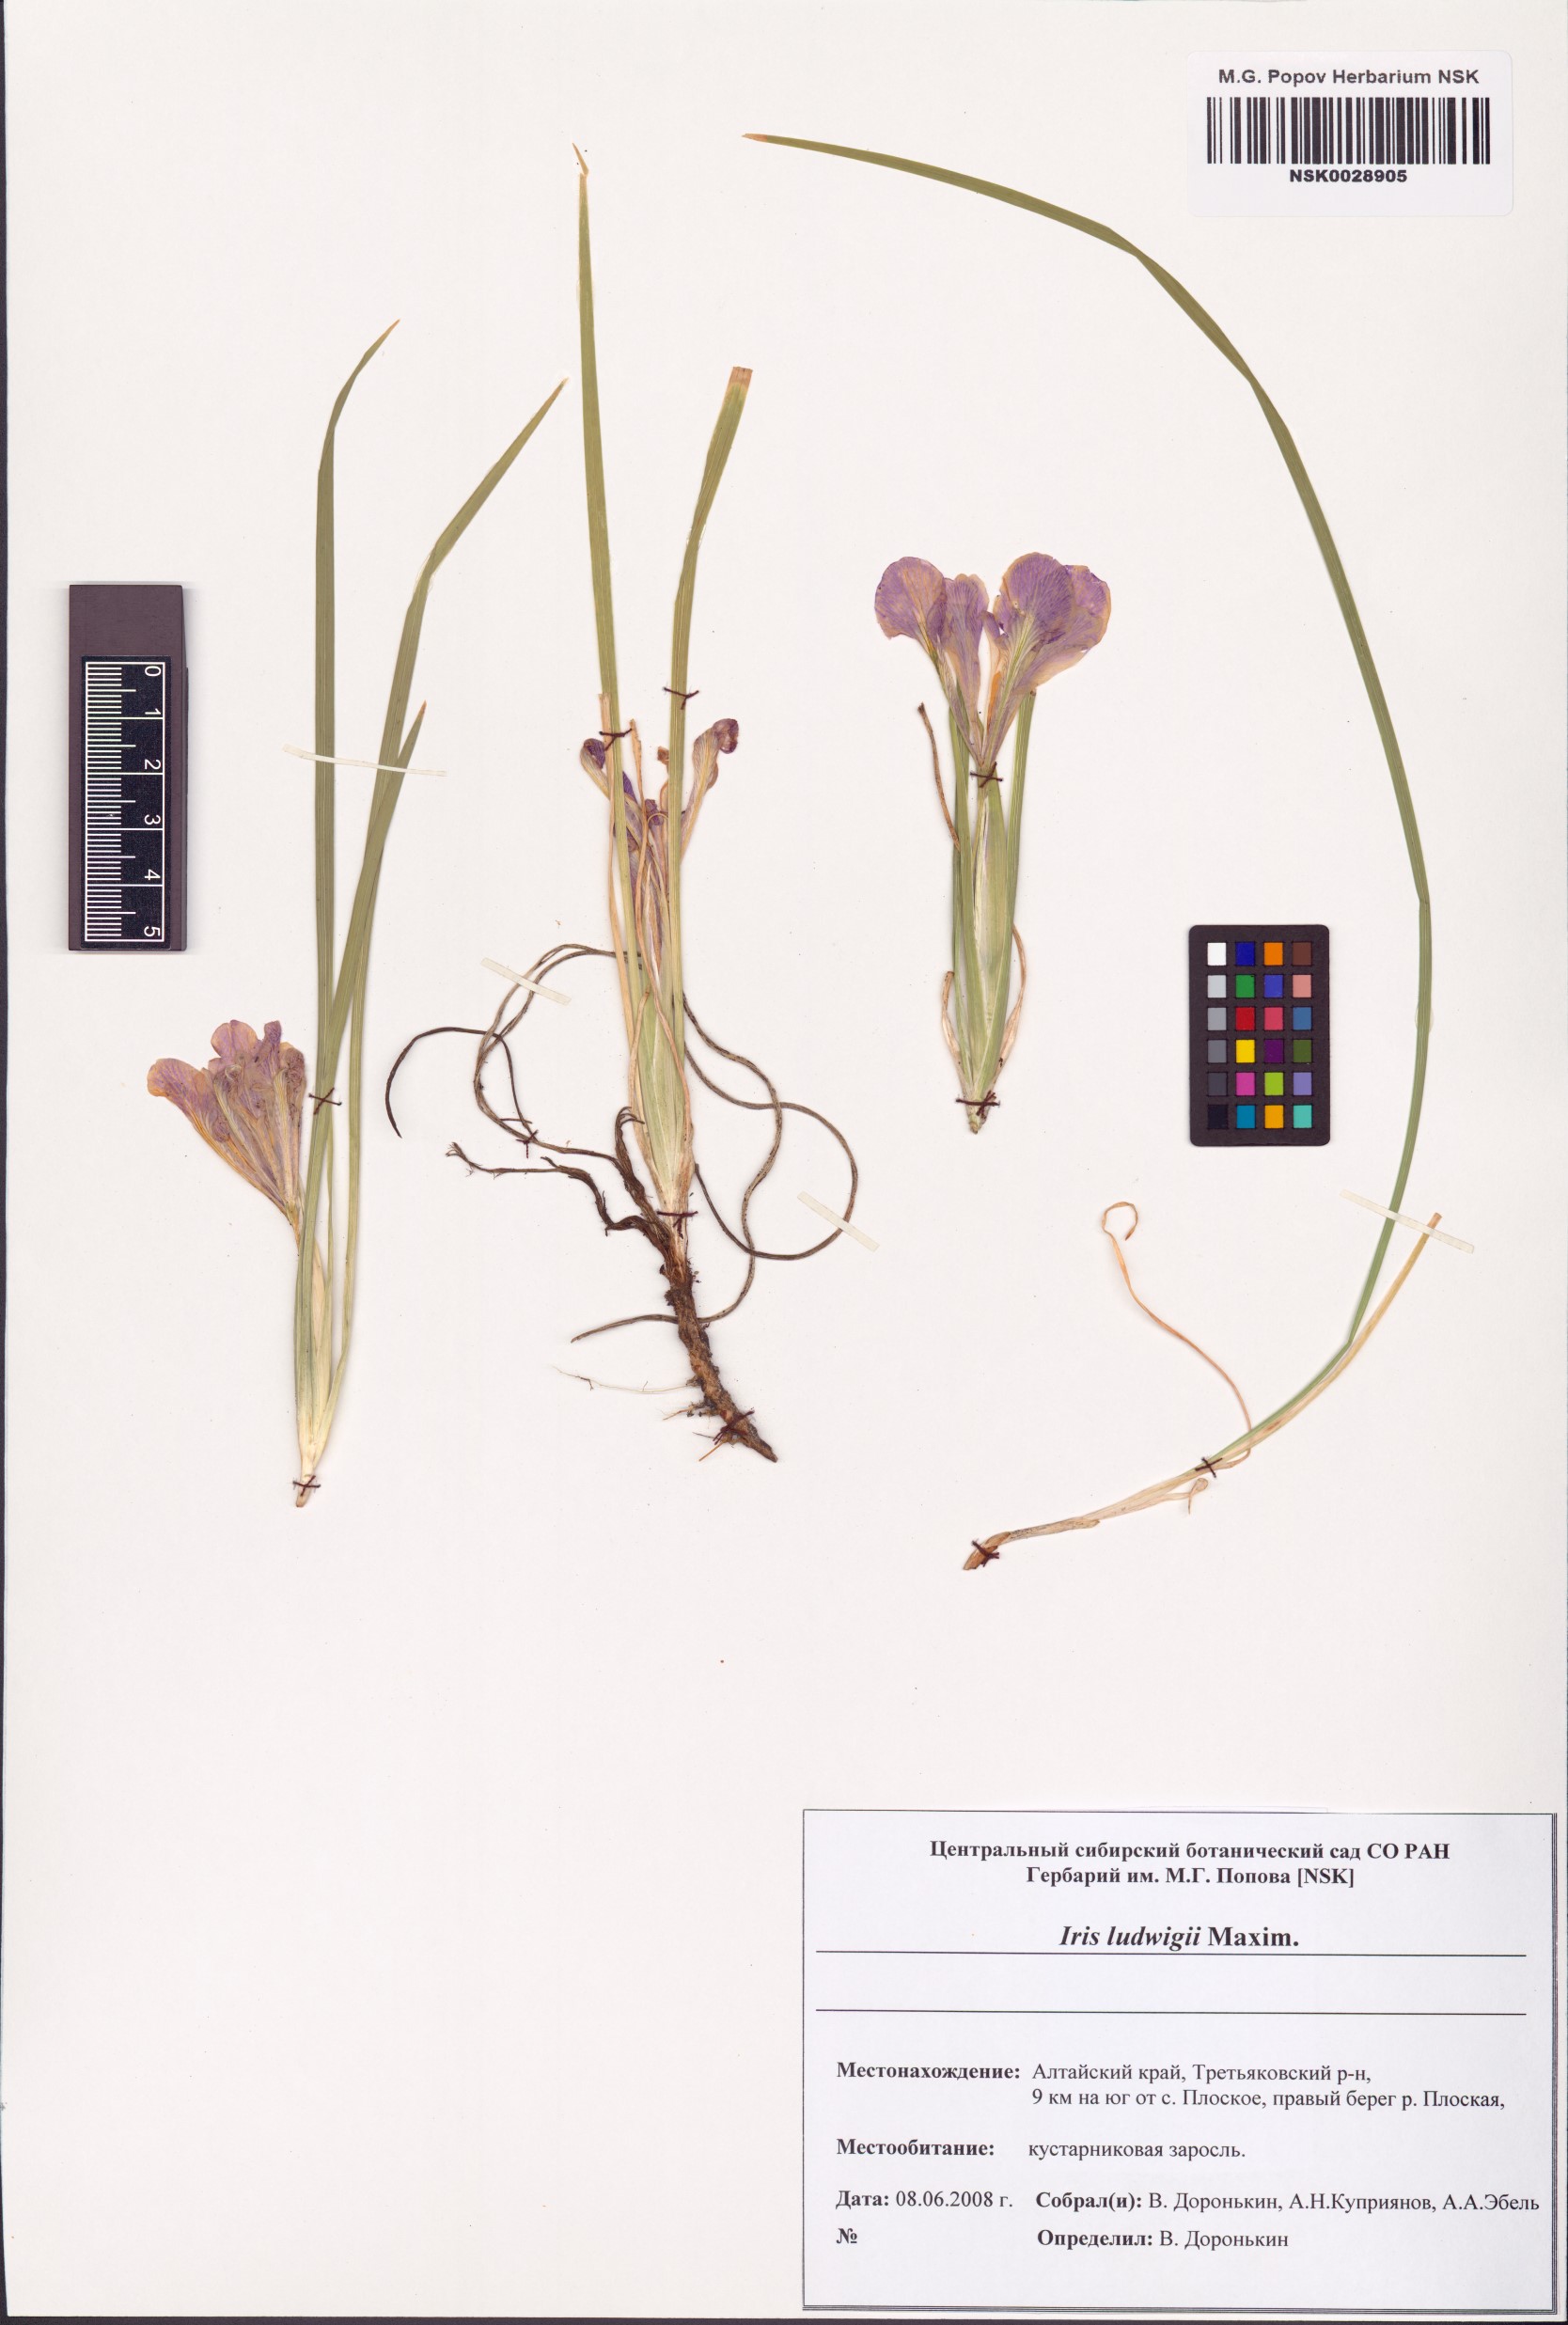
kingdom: Plantae
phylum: Tracheophyta
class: Liliopsida
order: Asparagales
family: Iridaceae
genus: Iris
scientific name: Iris ludwigii
